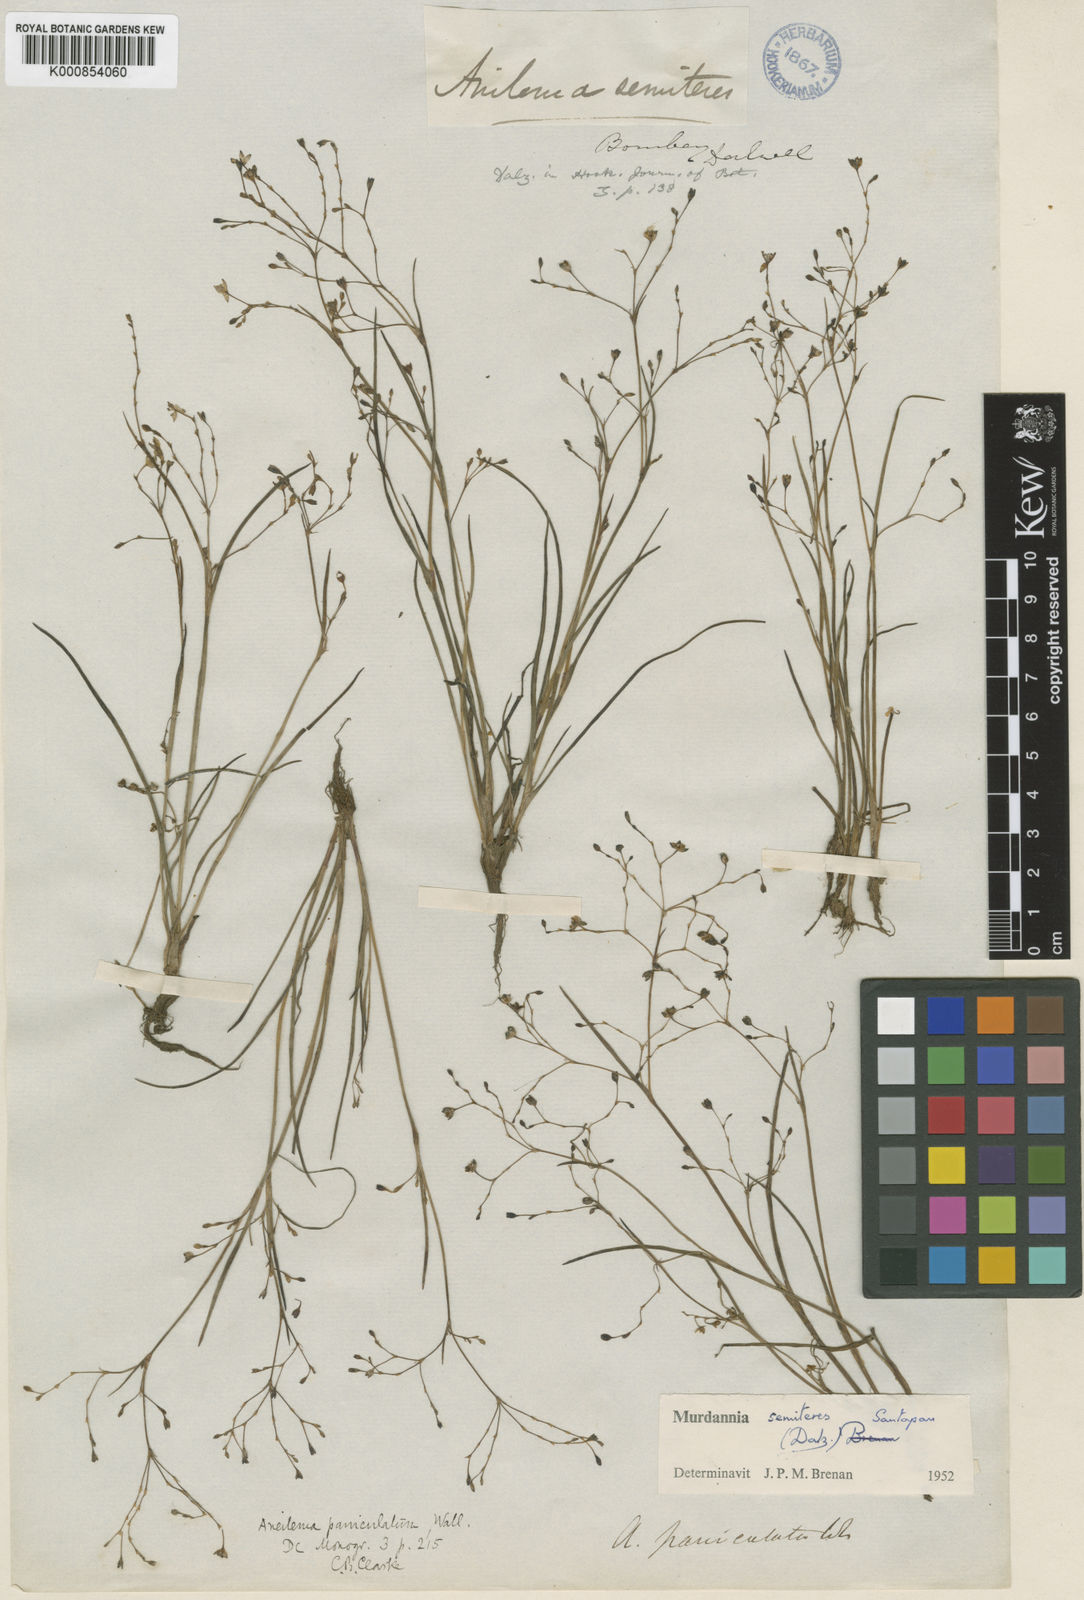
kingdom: Plantae
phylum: Tracheophyta
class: Liliopsida
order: Commelinales
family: Commelinaceae
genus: Murdannia
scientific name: Murdannia semiteres
